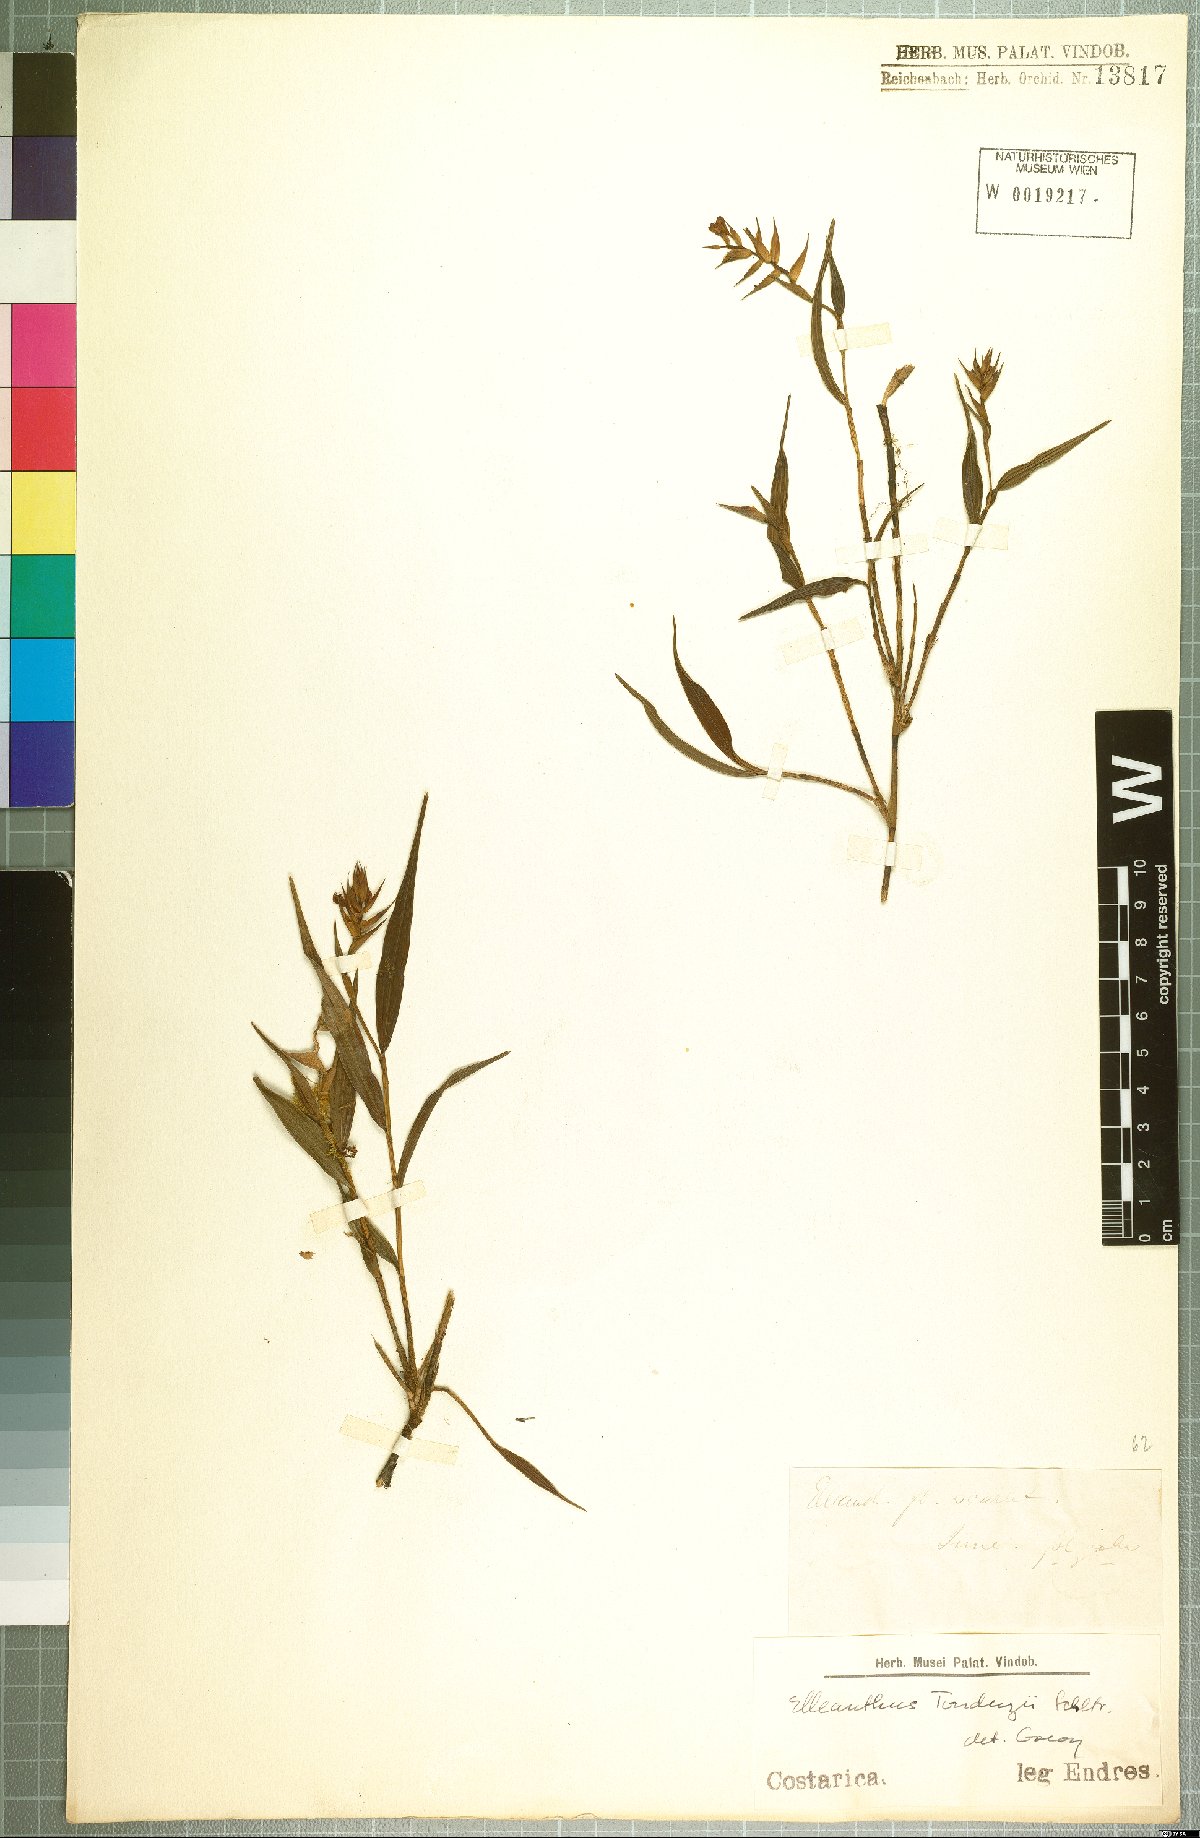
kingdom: Plantae
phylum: Tracheophyta
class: Liliopsida
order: Asparagales
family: Orchidaceae
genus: Elleanthus
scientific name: Elleanthus tonduzii
